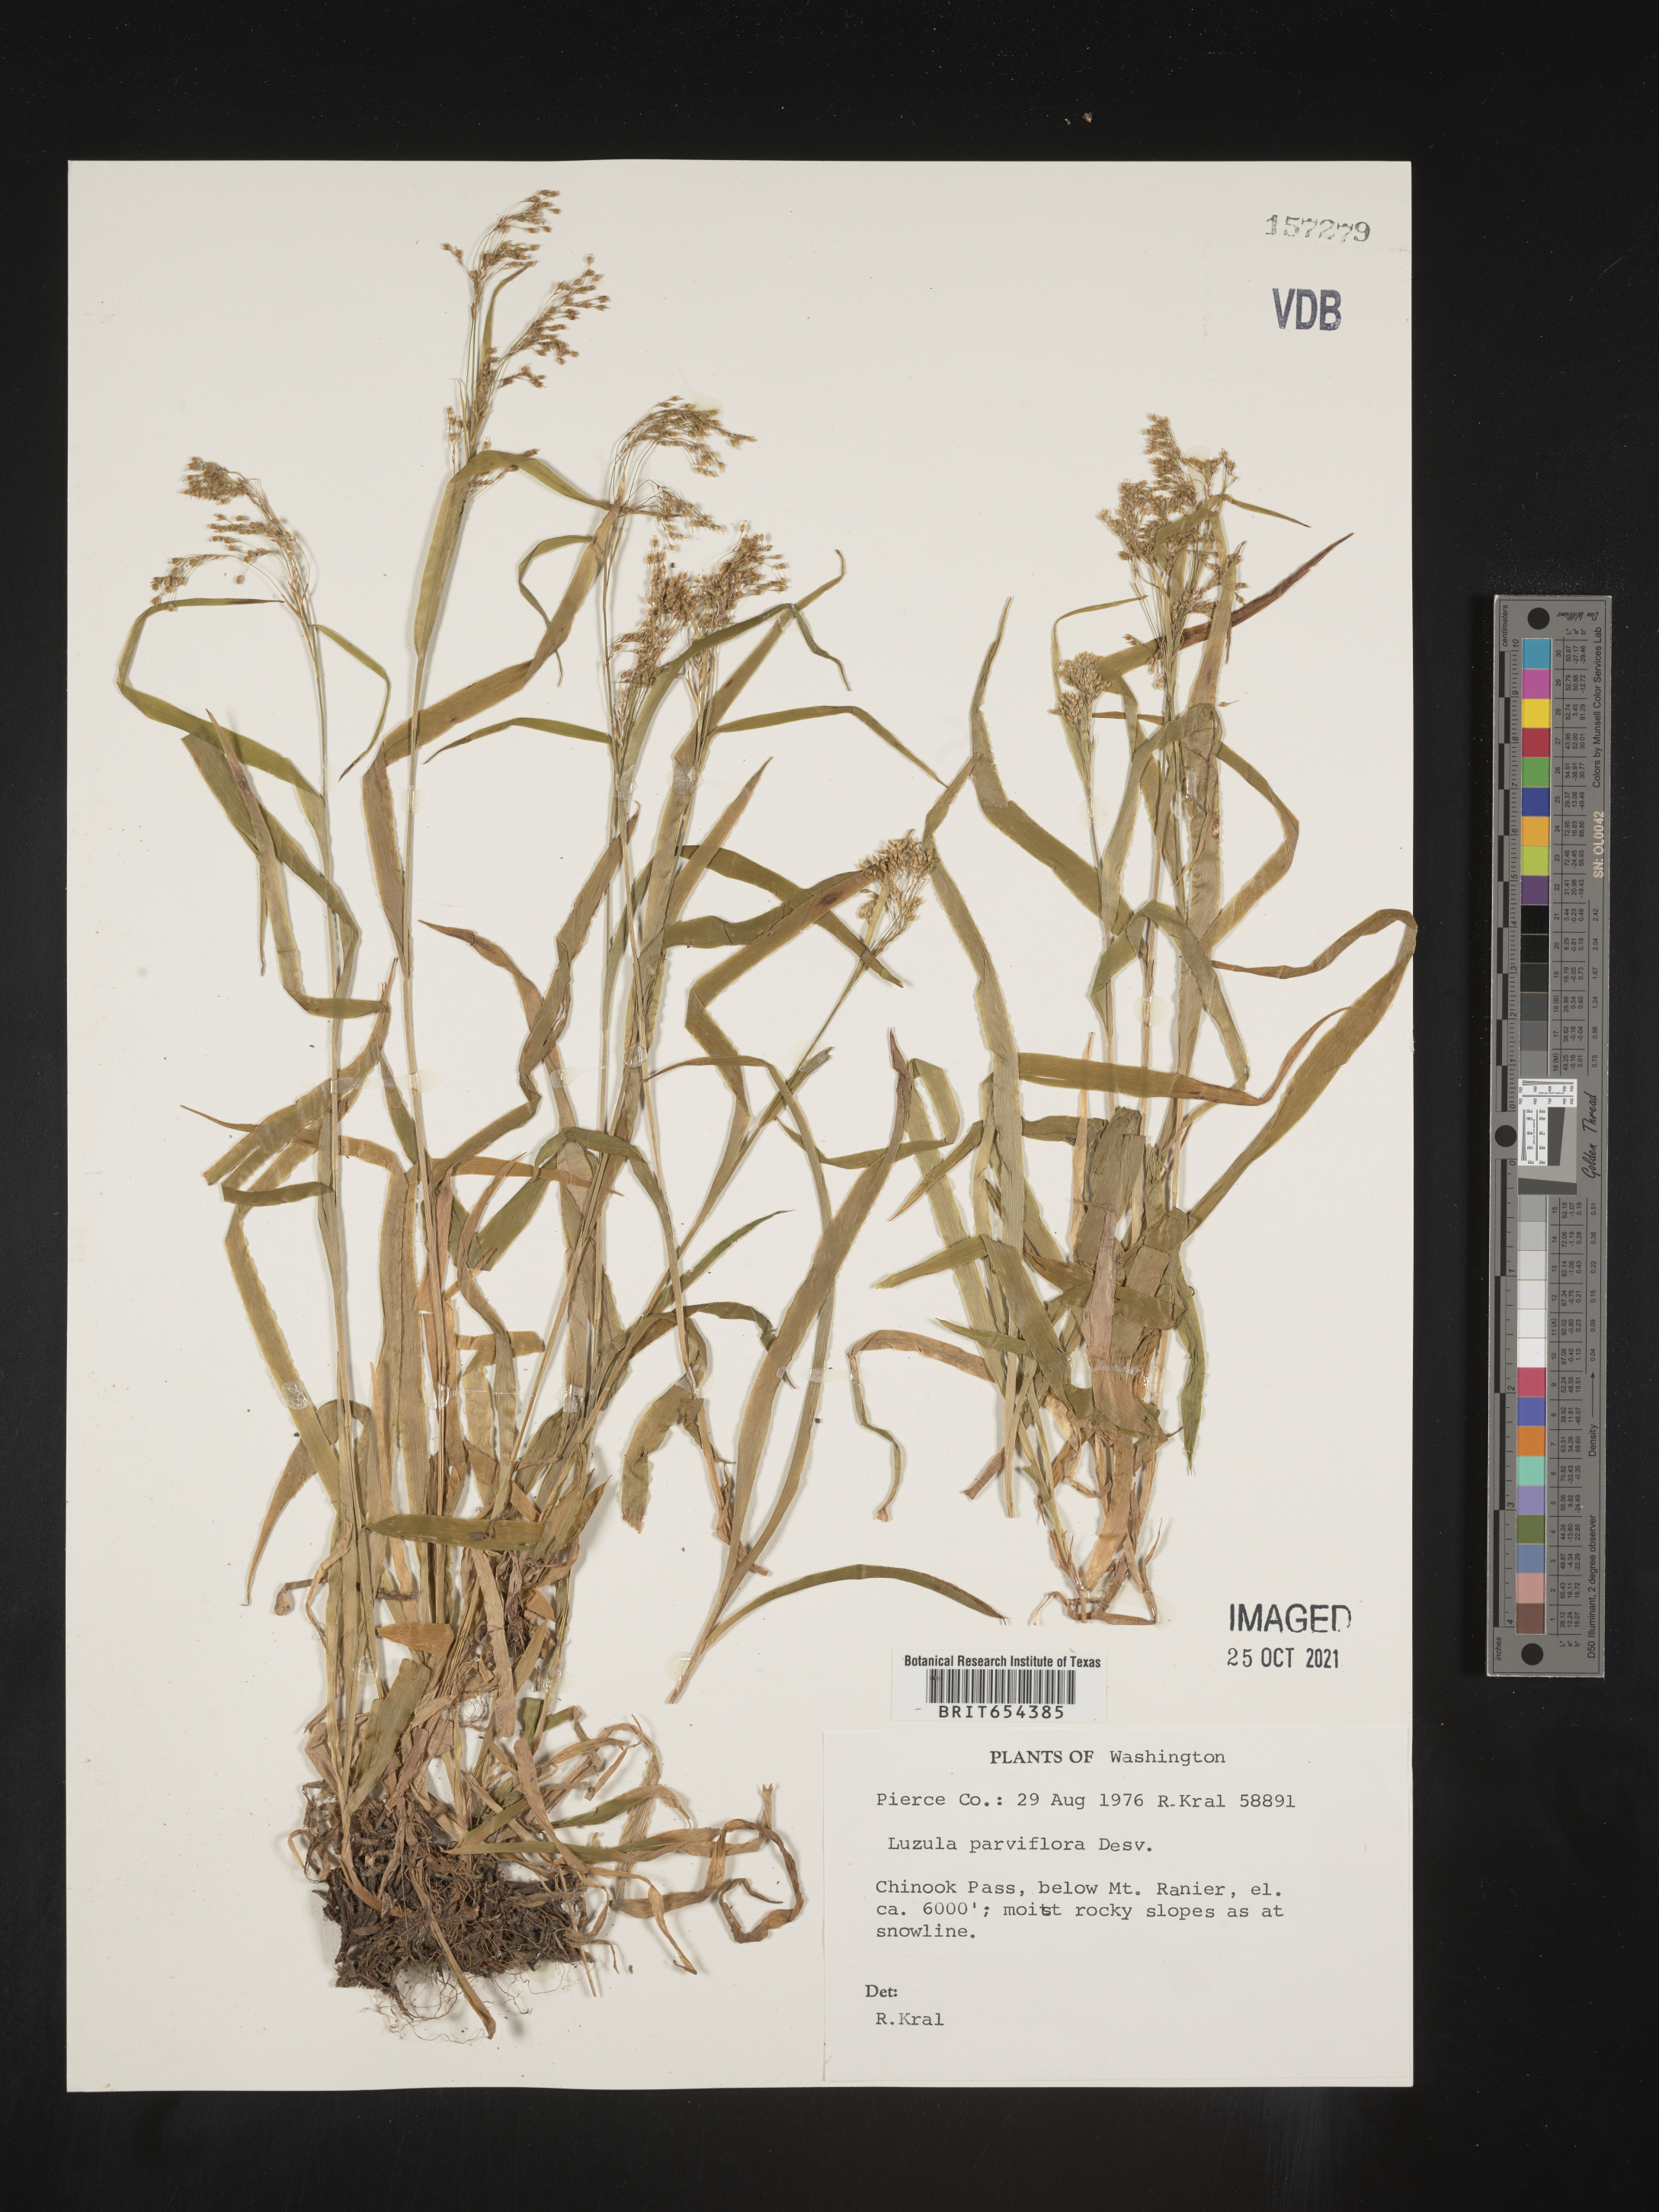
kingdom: Plantae
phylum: Tracheophyta
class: Liliopsida
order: Poales
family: Juncaceae
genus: Luzula
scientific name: Luzula parviflora
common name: Millet woodrush
